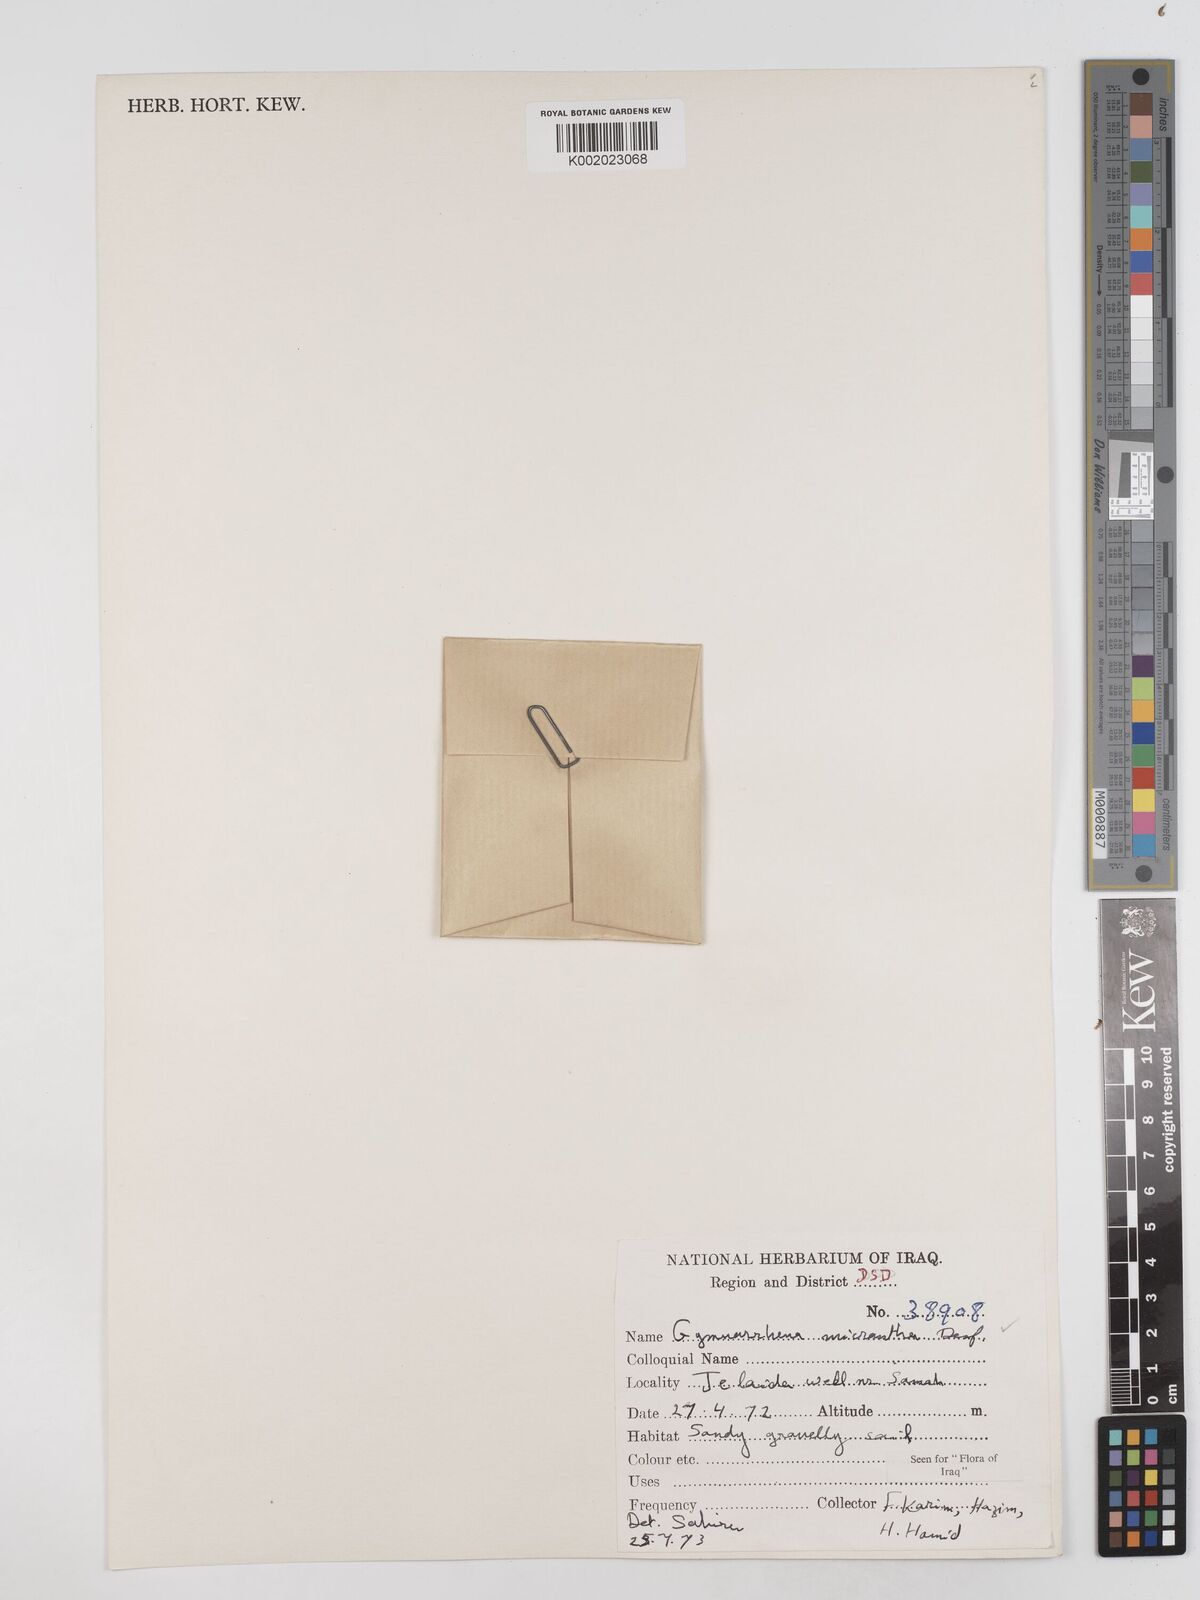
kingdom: Plantae
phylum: Tracheophyta
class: Magnoliopsida
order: Asterales
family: Asteraceae
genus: Gymnarrhena
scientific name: Gymnarrhena micrantha
